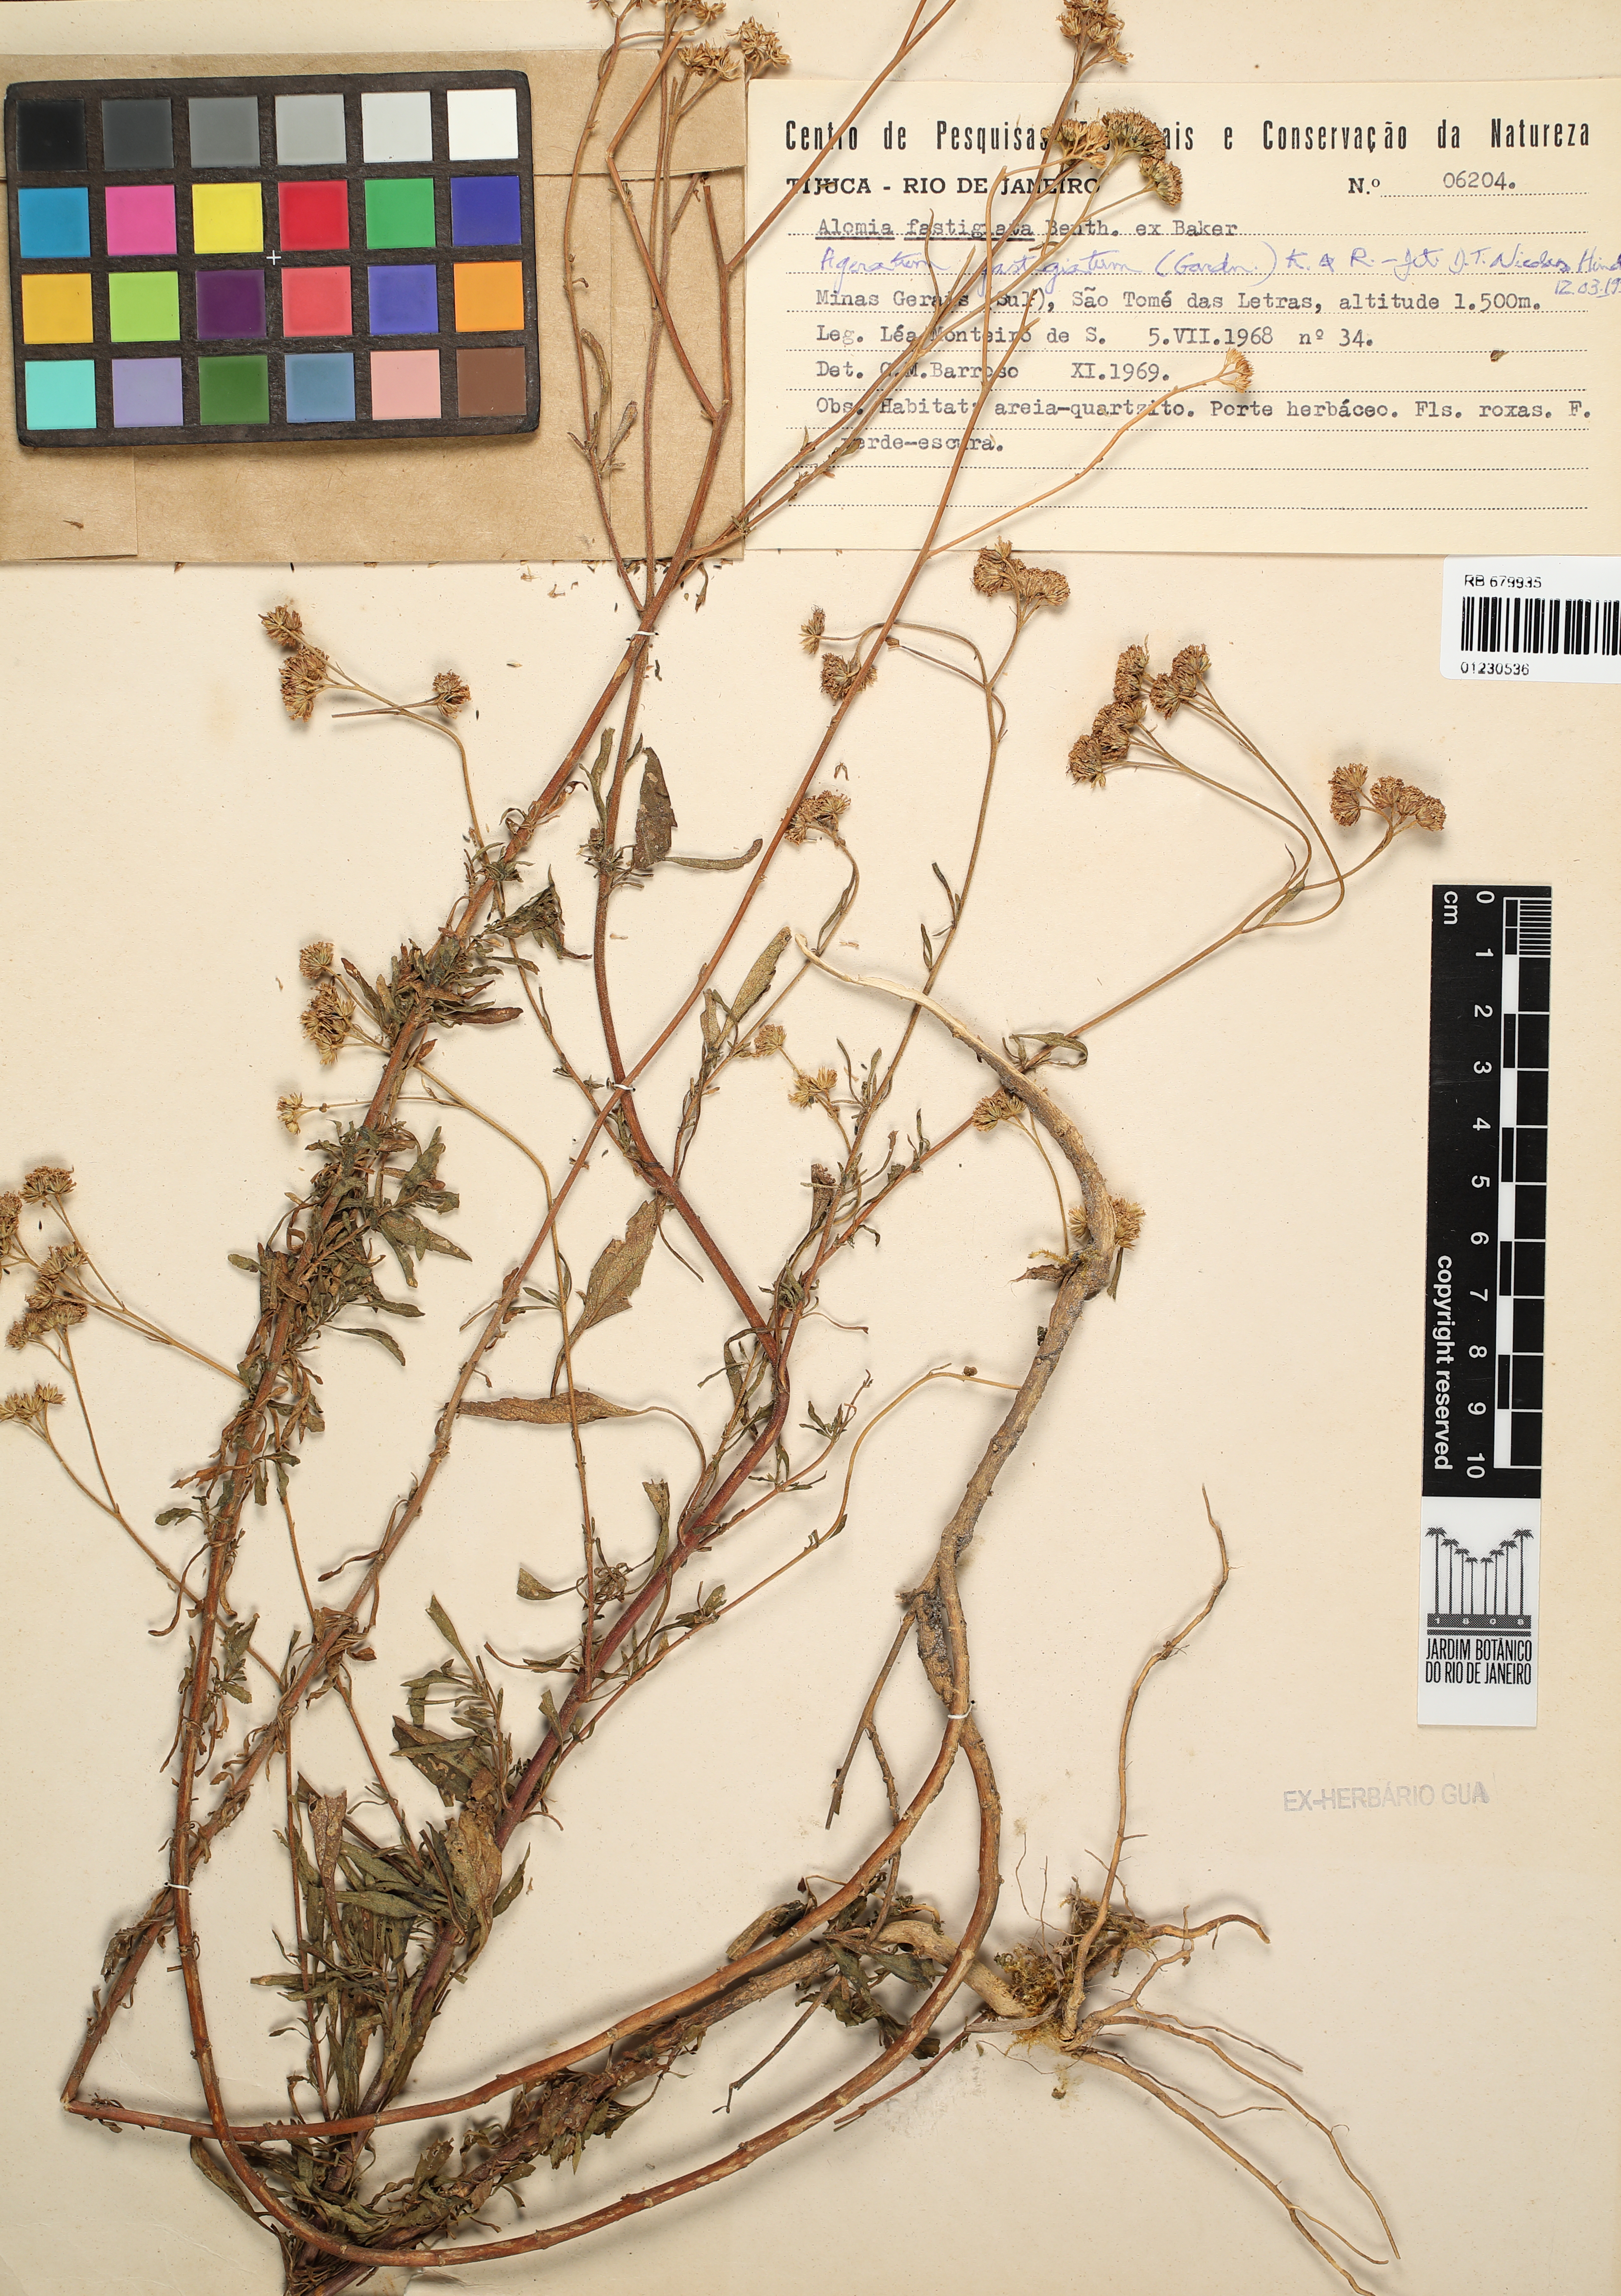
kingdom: Plantae
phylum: Tracheophyta
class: Magnoliopsida
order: Asterales
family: Asteraceae
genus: Ageratum
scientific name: Ageratum fastigiatum
